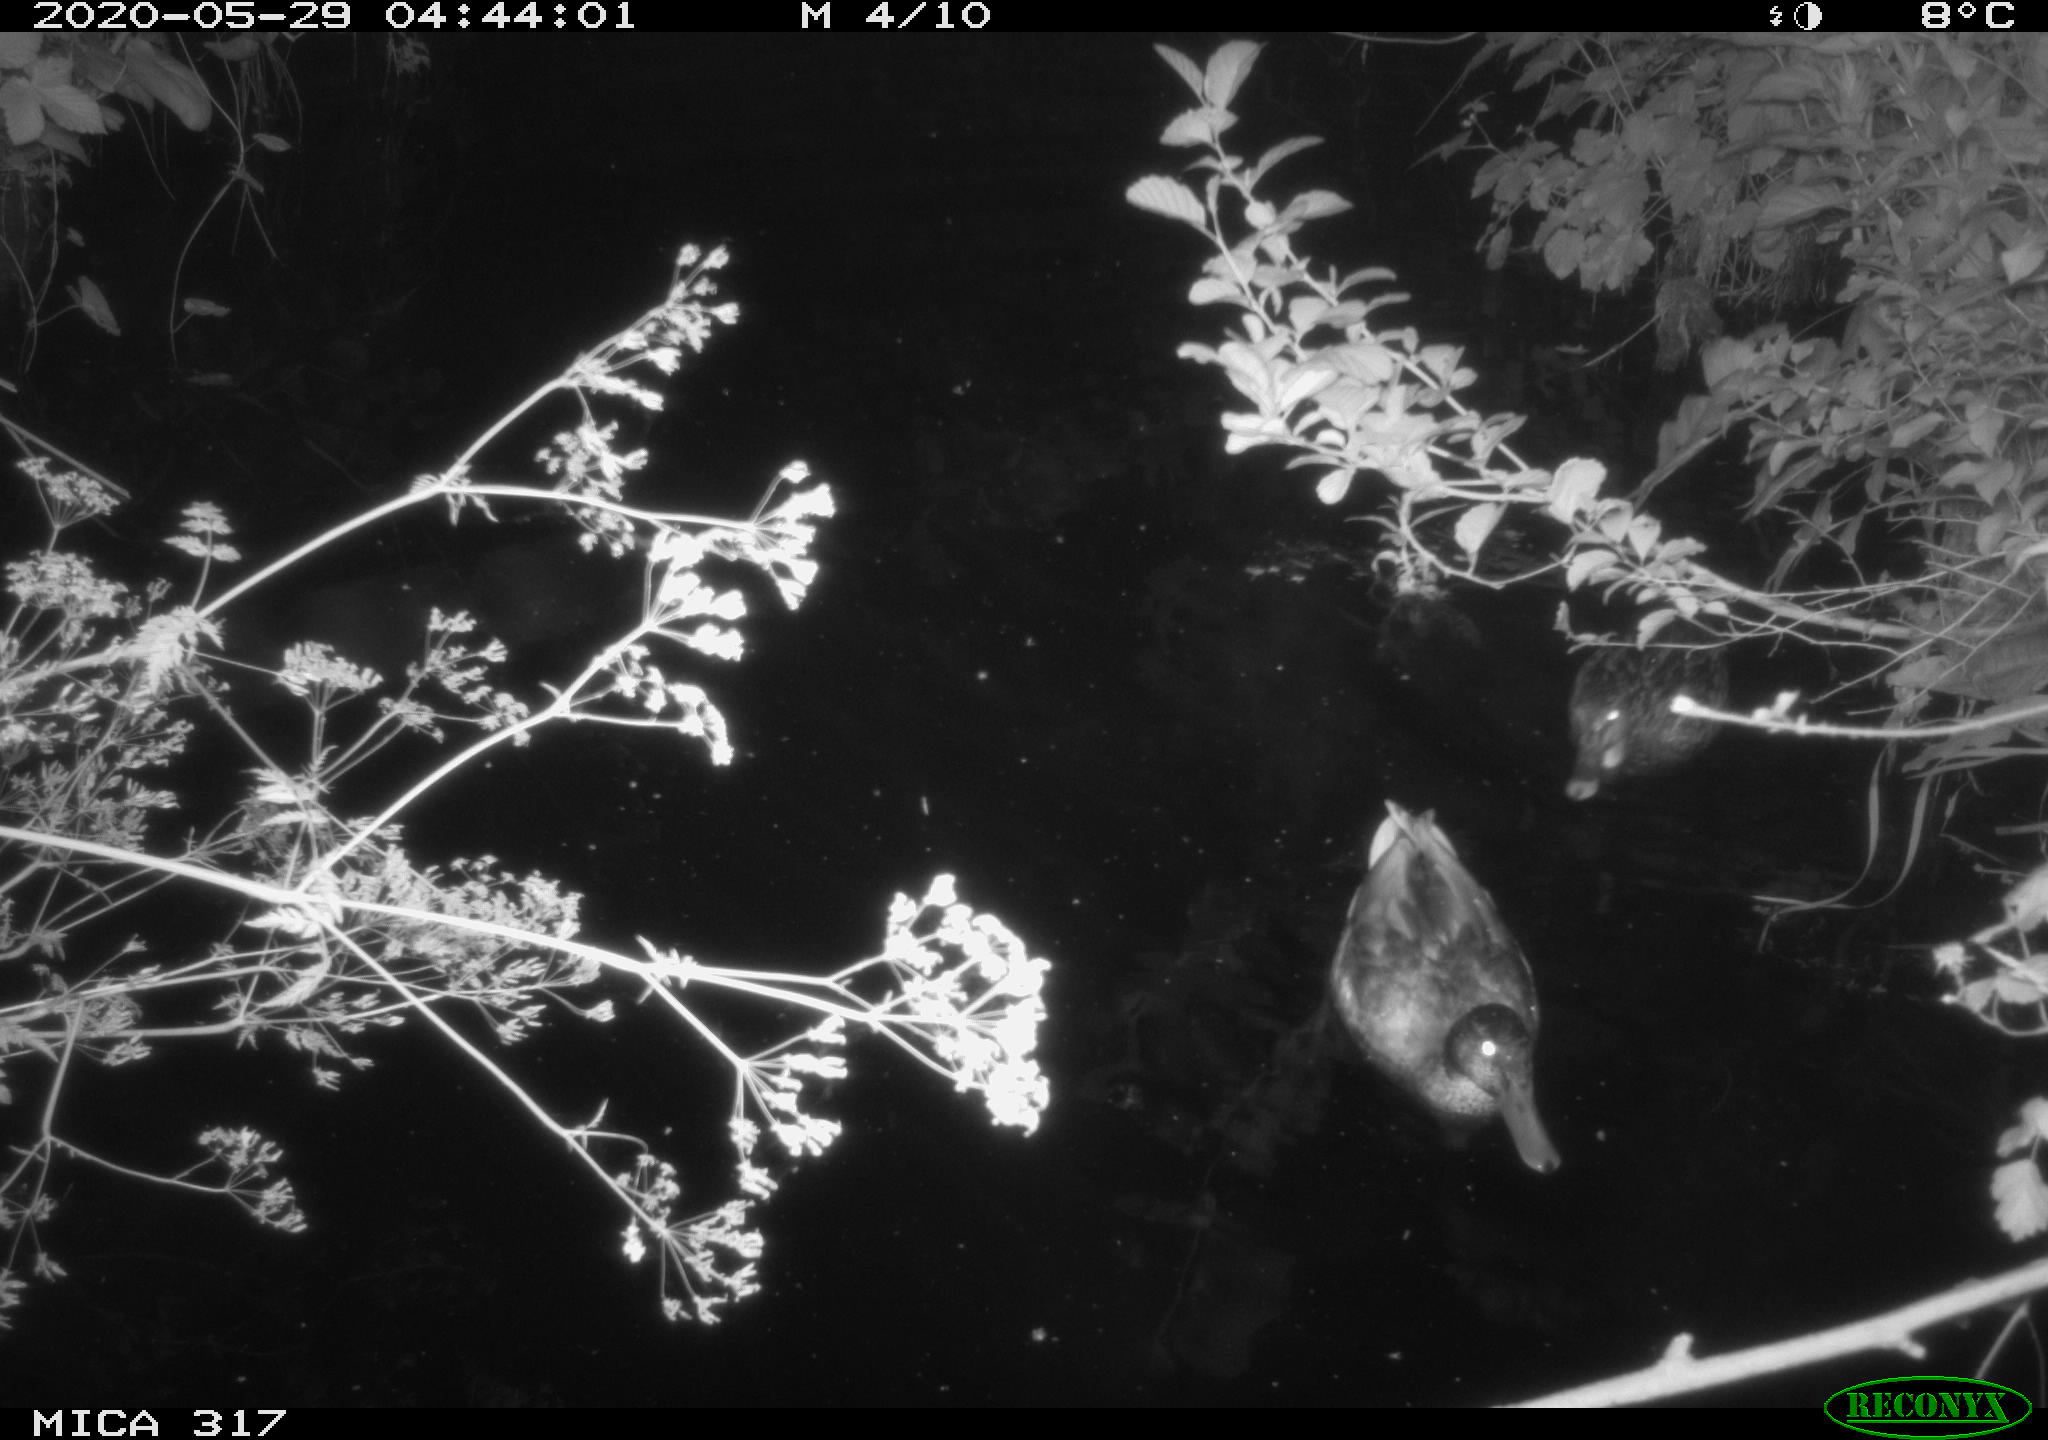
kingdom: Animalia
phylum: Chordata
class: Aves
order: Anseriformes
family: Anatidae
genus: Anas
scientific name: Anas platyrhynchos
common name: Mallard
